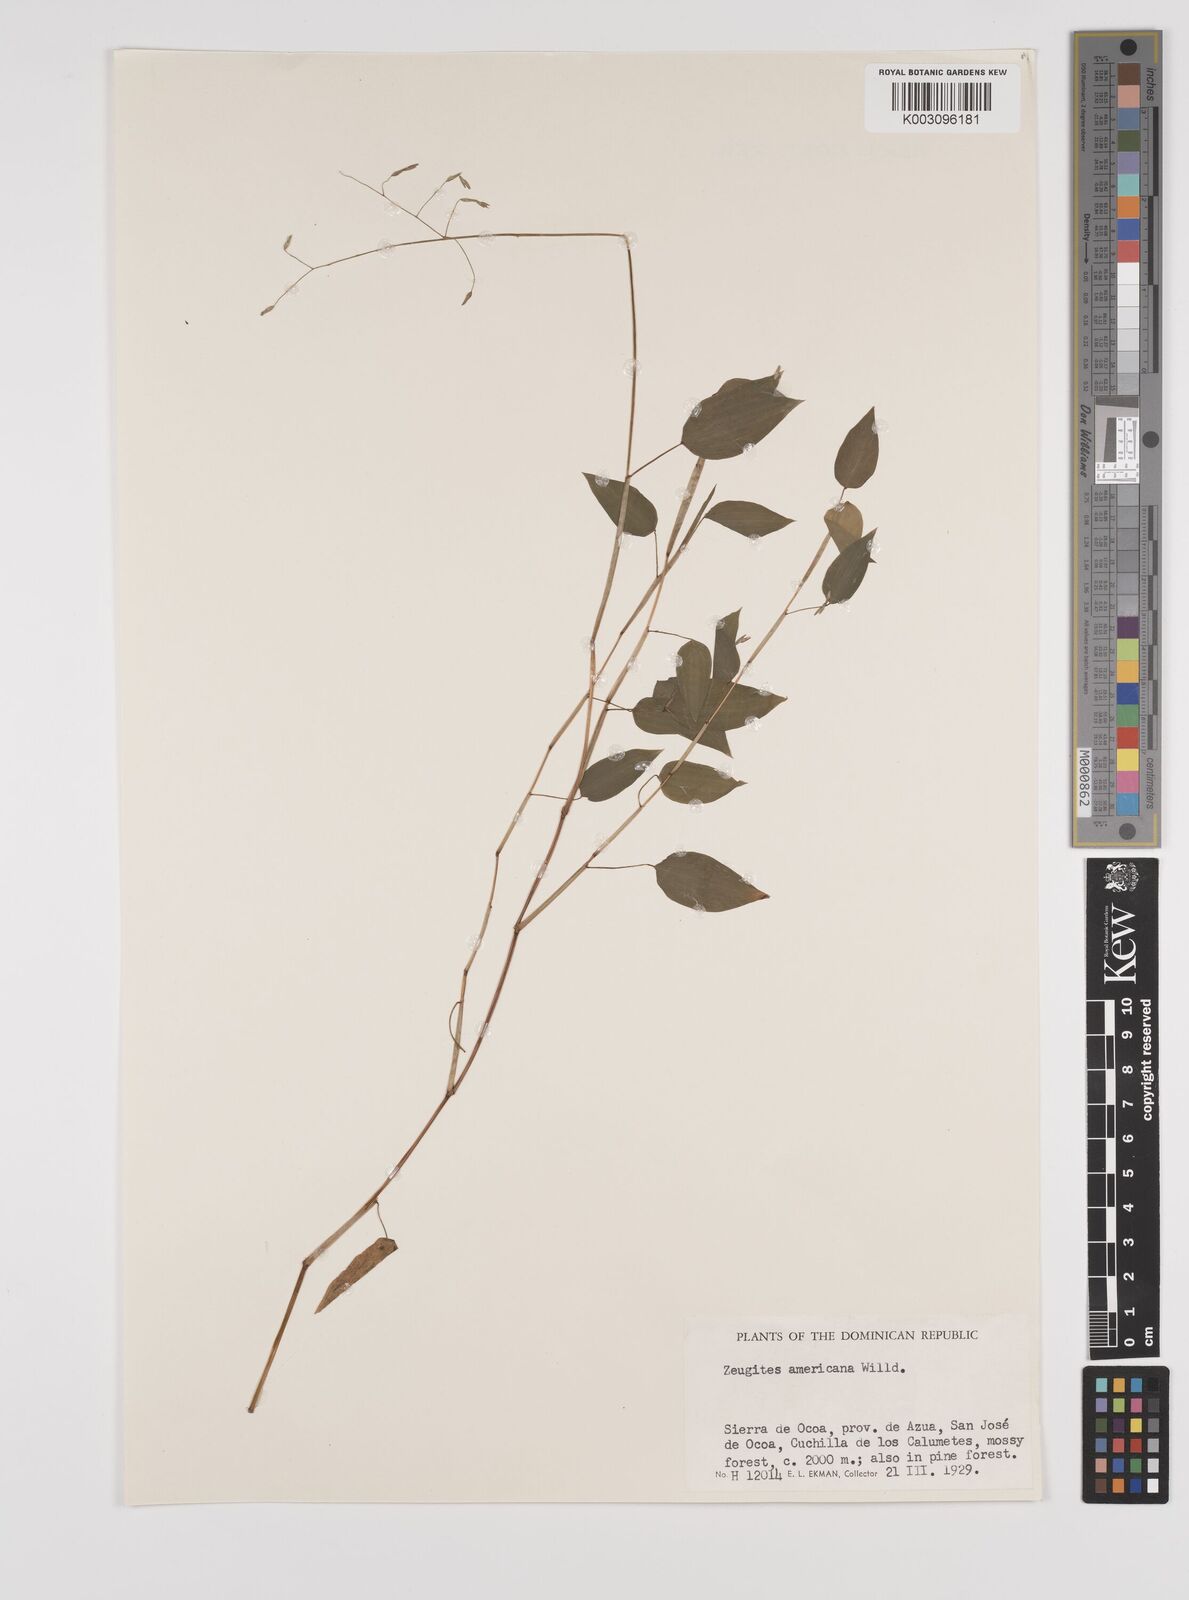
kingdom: Plantae
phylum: Tracheophyta
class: Liliopsida
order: Poales
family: Poaceae
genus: Zeugites
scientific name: Zeugites americanus
